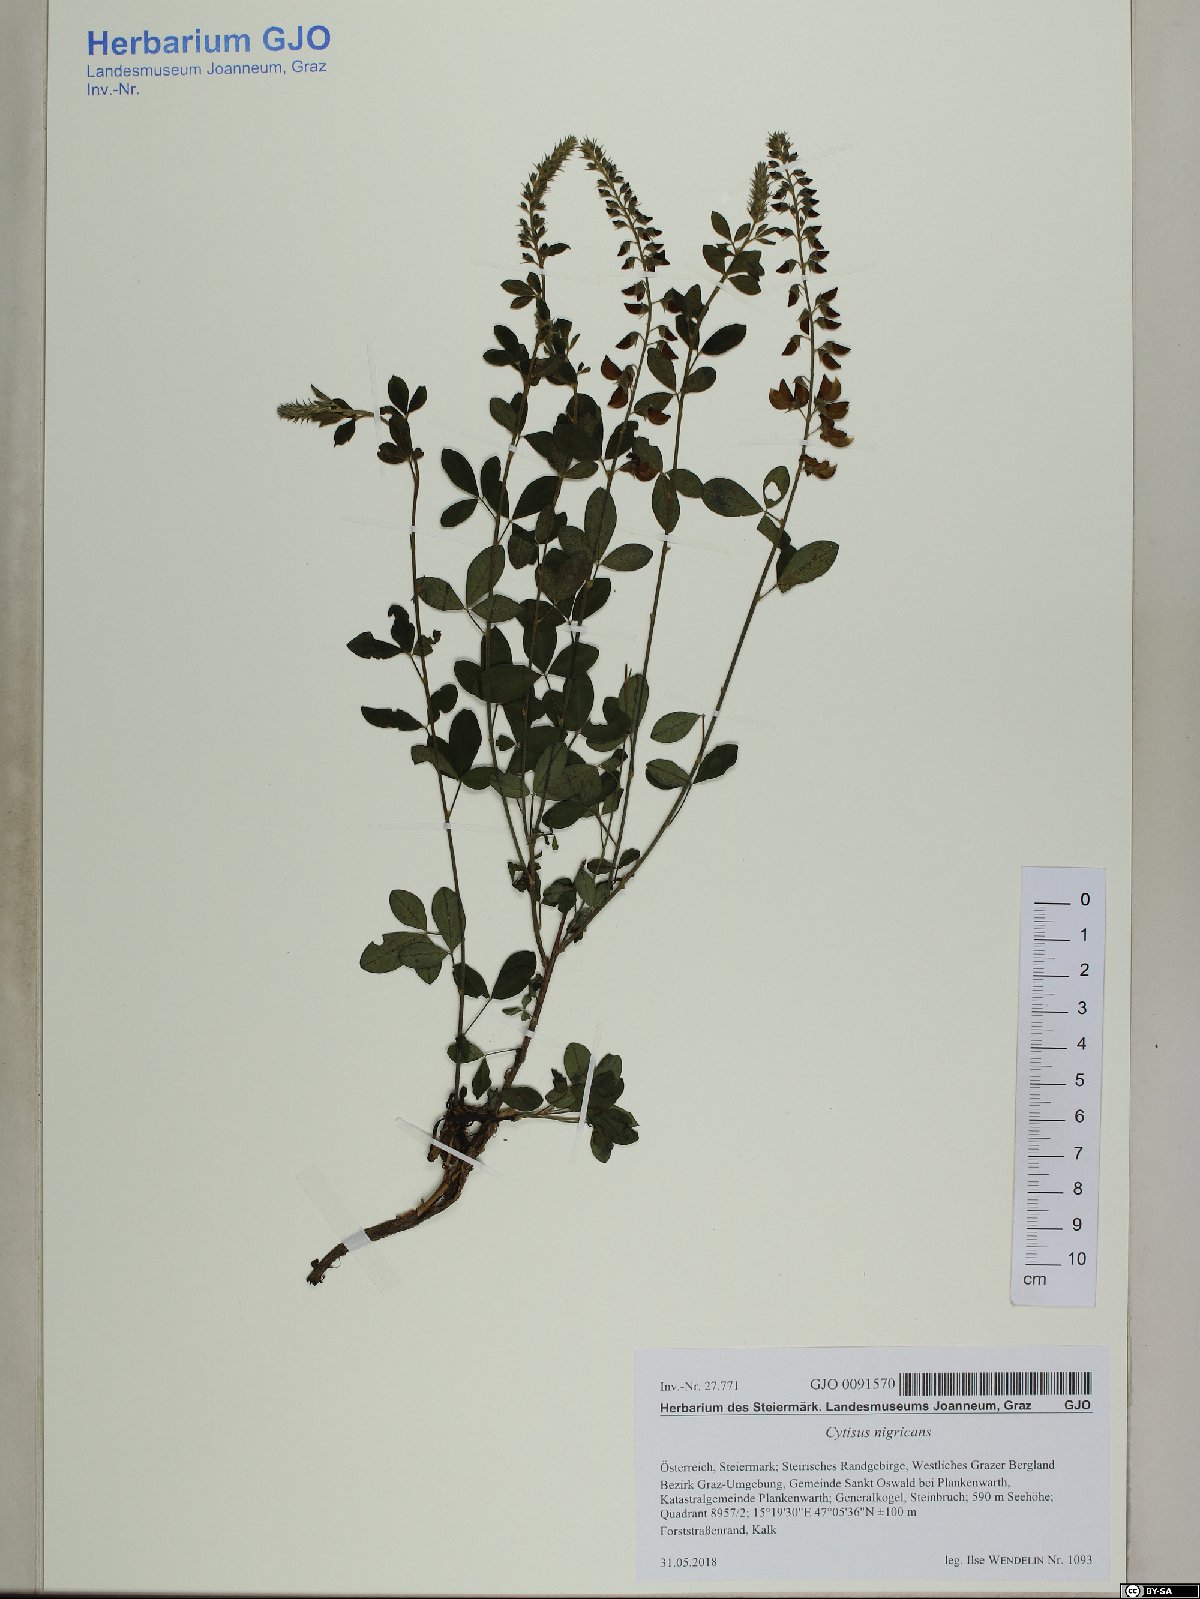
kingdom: Plantae
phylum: Tracheophyta
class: Magnoliopsida
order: Fabales
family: Fabaceae
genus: Cytisus
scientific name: Cytisus nigricans
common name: Black broom
